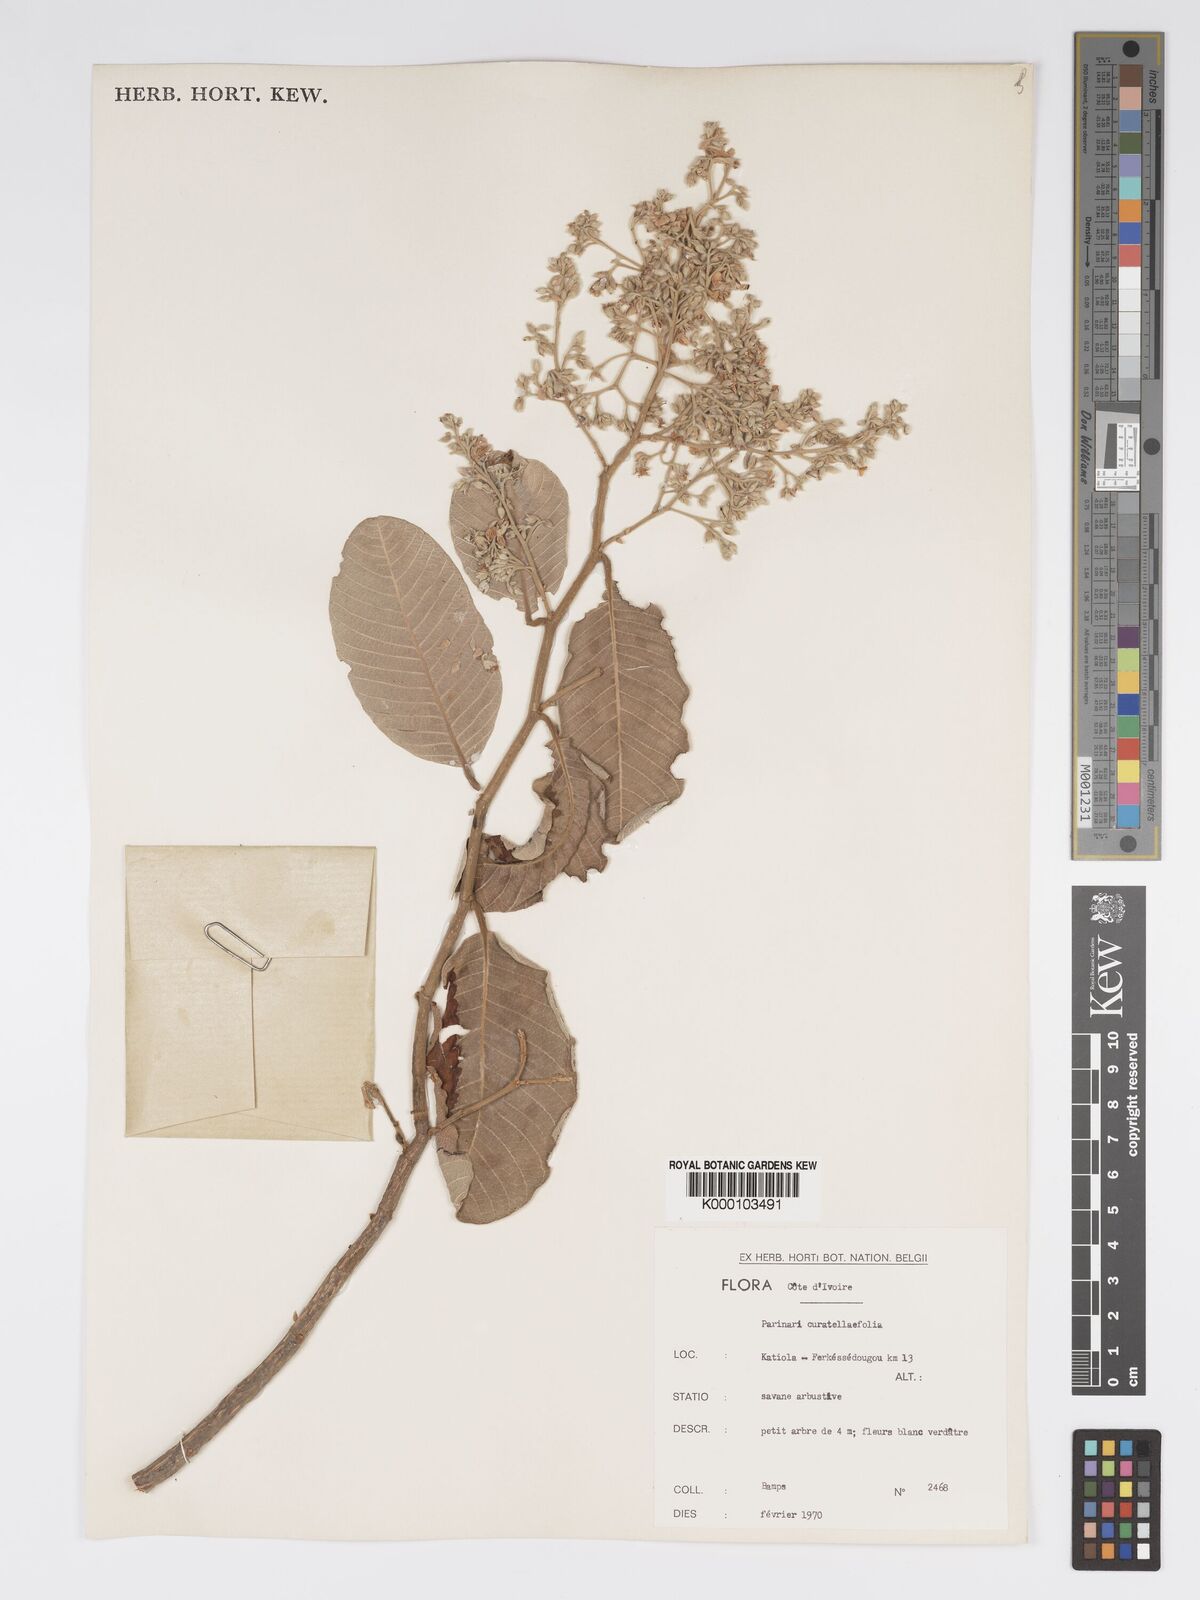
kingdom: Plantae
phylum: Tracheophyta
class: Magnoliopsida
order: Malpighiales
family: Chrysobalanaceae
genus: Parinari
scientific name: Parinari curatellifolia
